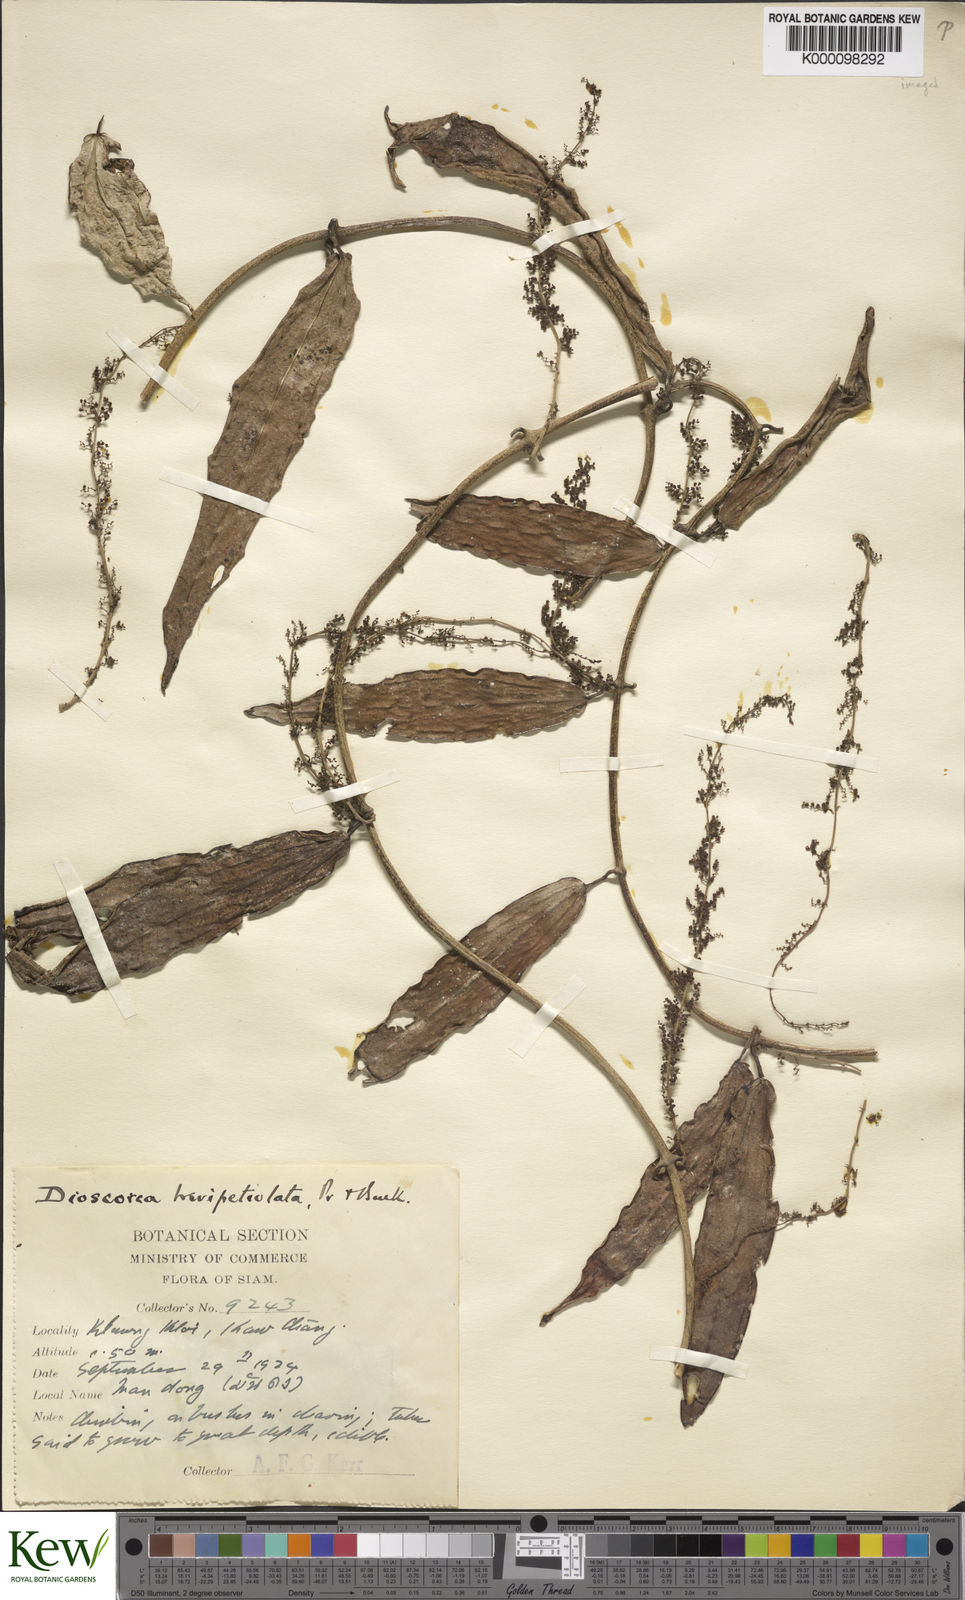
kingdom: Plantae
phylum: Tracheophyta
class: Liliopsida
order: Dioscoreales
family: Dioscoreaceae
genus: Dioscorea
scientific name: Dioscorea brevipetiolata
